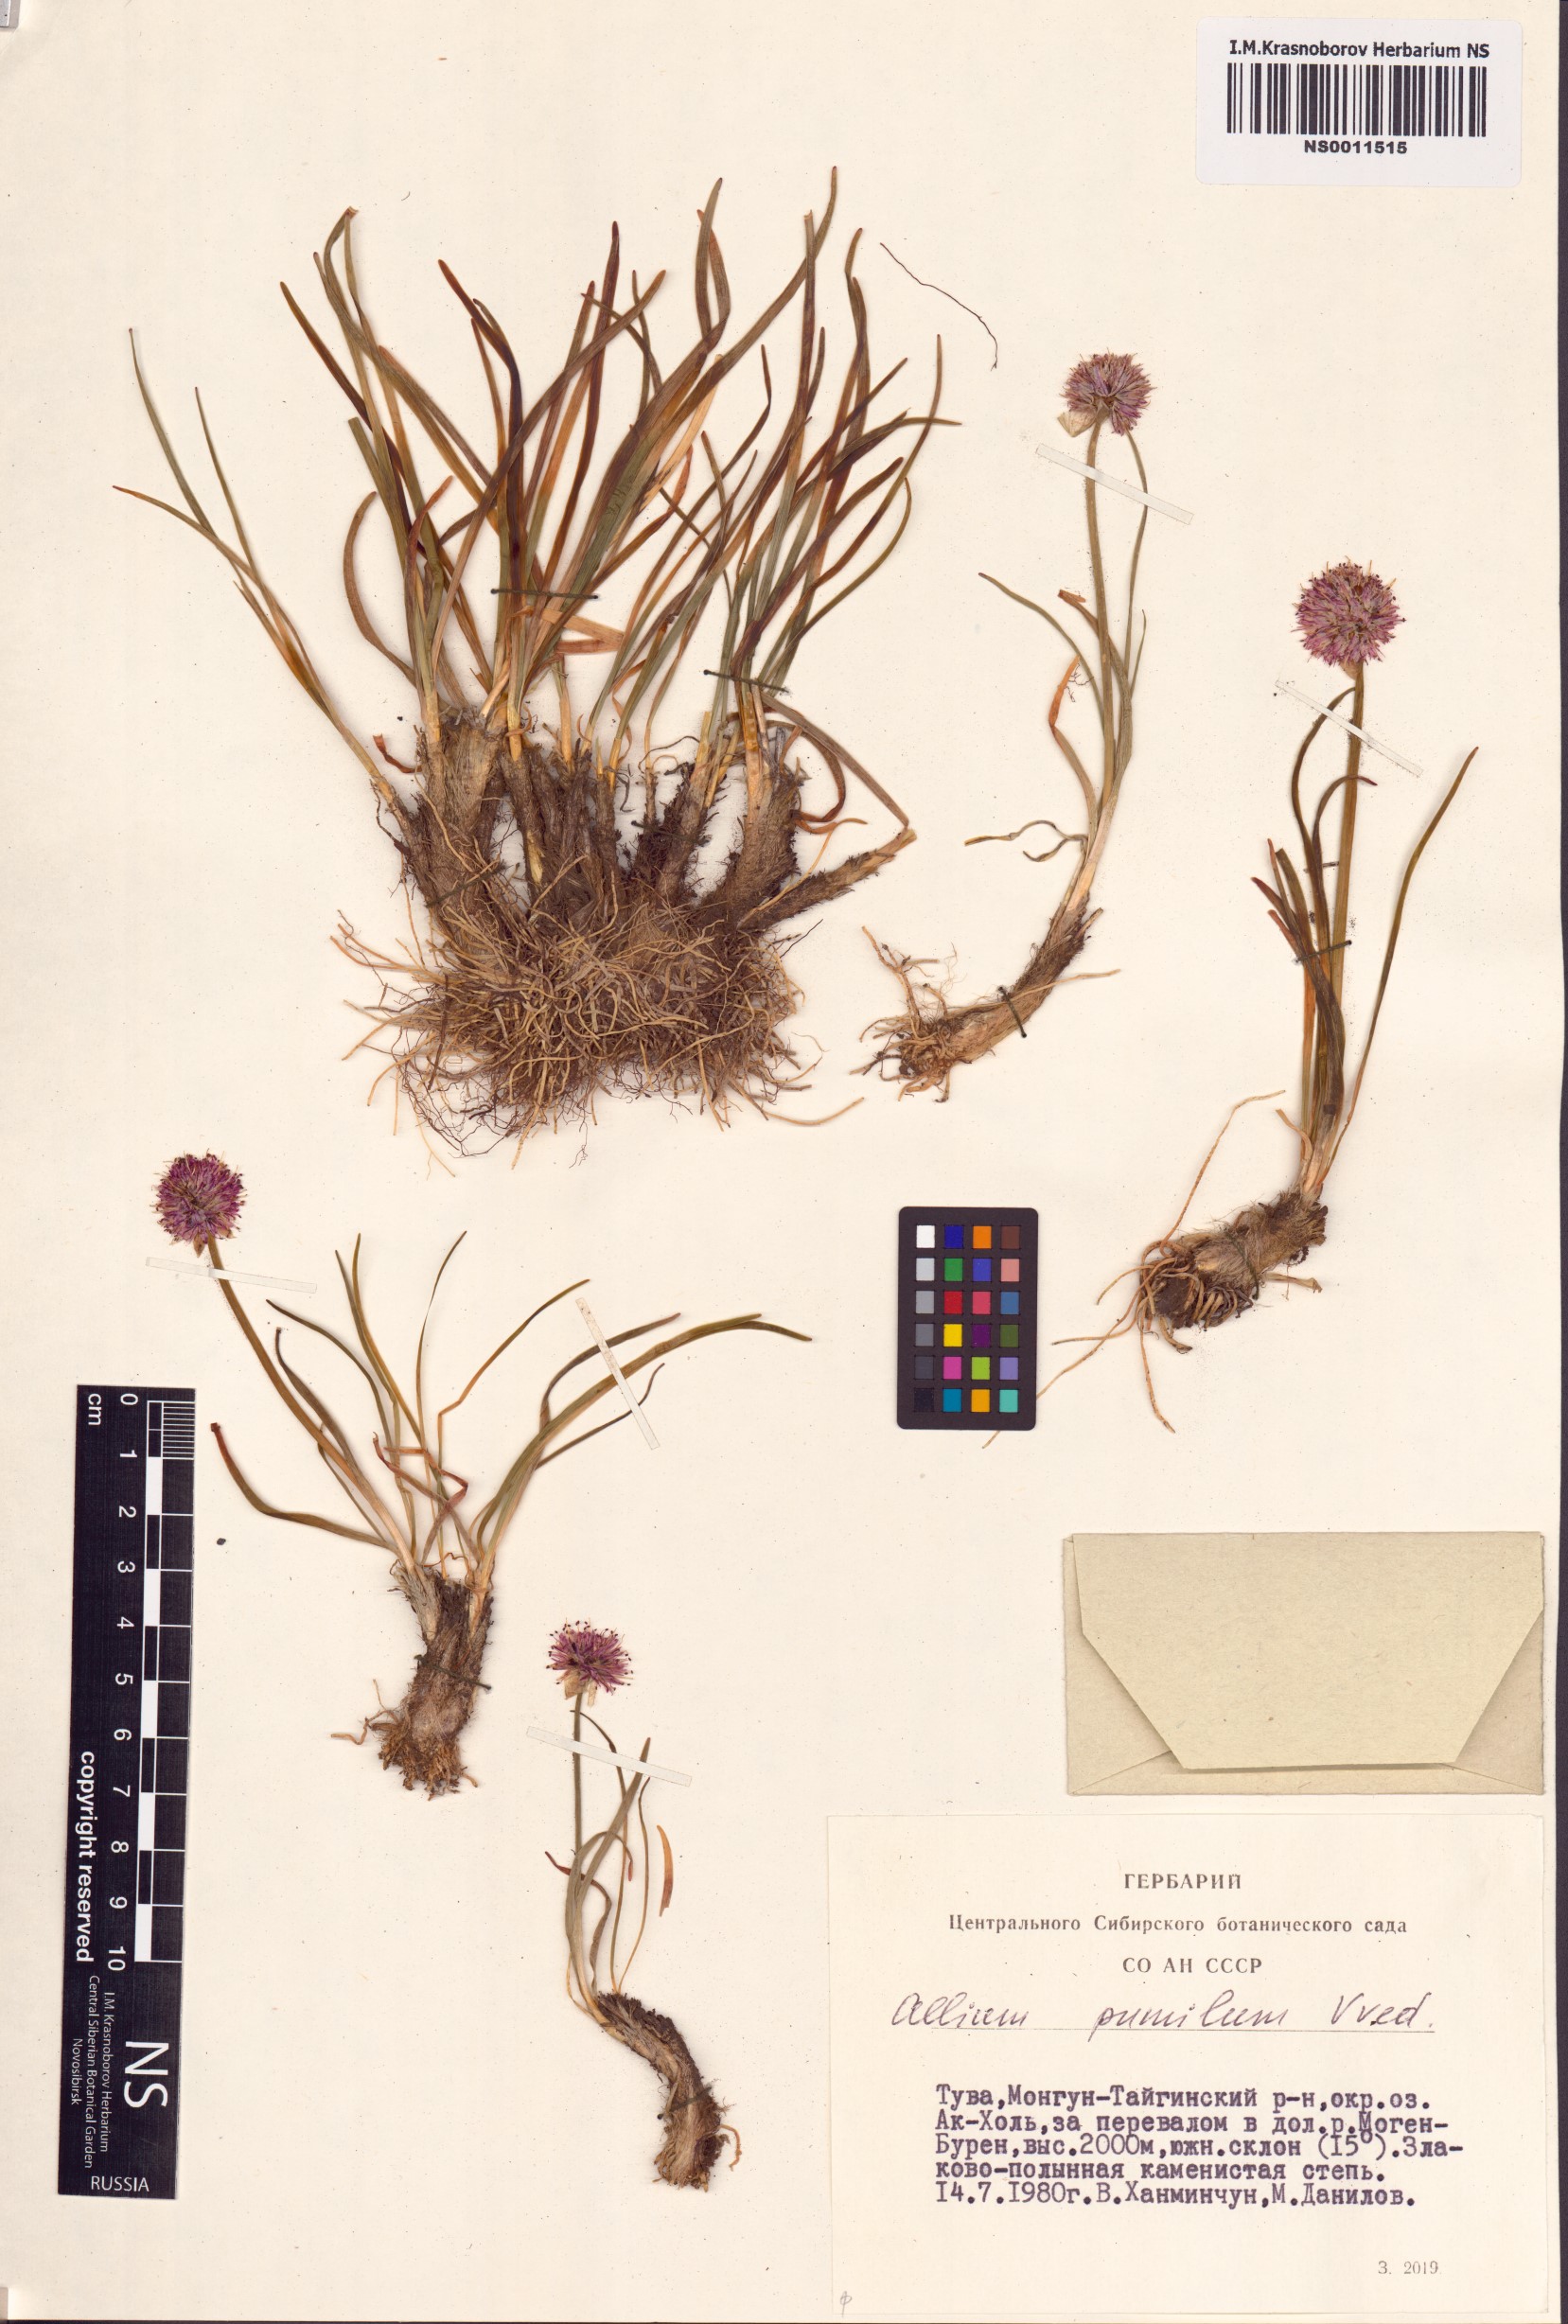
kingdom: Plantae
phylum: Tracheophyta
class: Liliopsida
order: Asparagales
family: Amaryllidaceae
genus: Allium
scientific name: Allium pumilum
